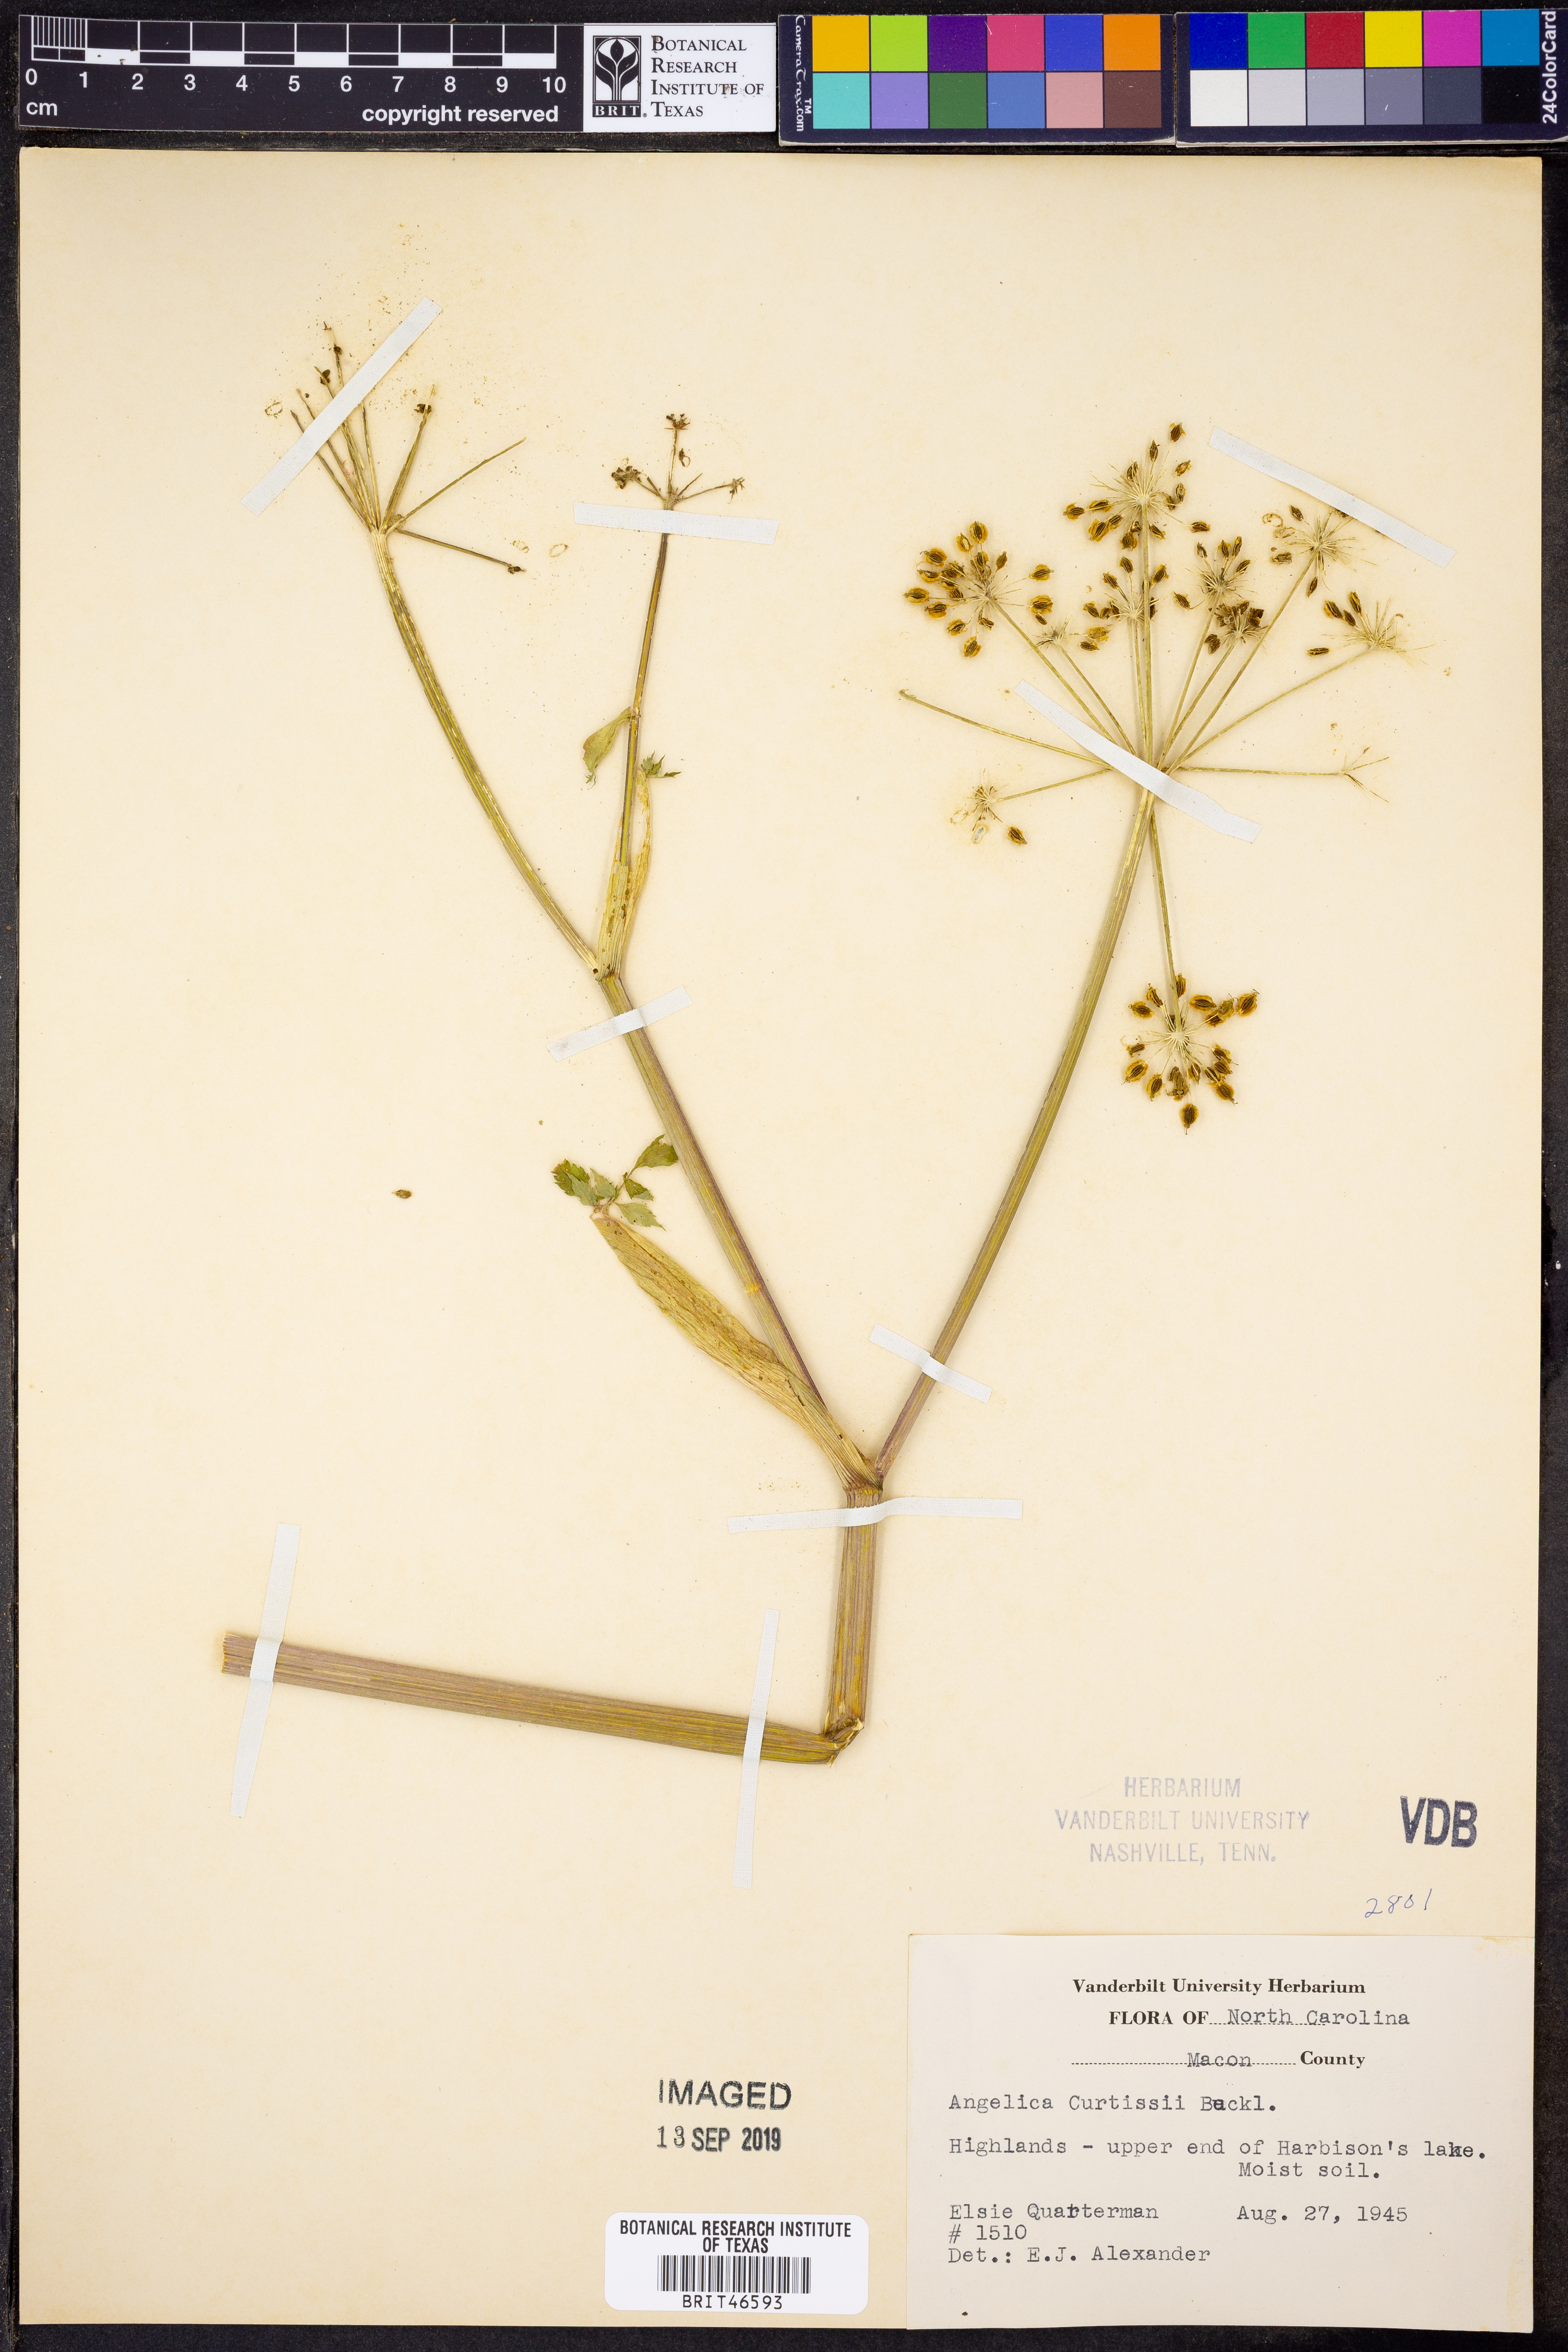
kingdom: Plantae
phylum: Tracheophyta
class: Magnoliopsida
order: Apiales
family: Apiaceae
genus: Angelica
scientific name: Angelica triquinata
